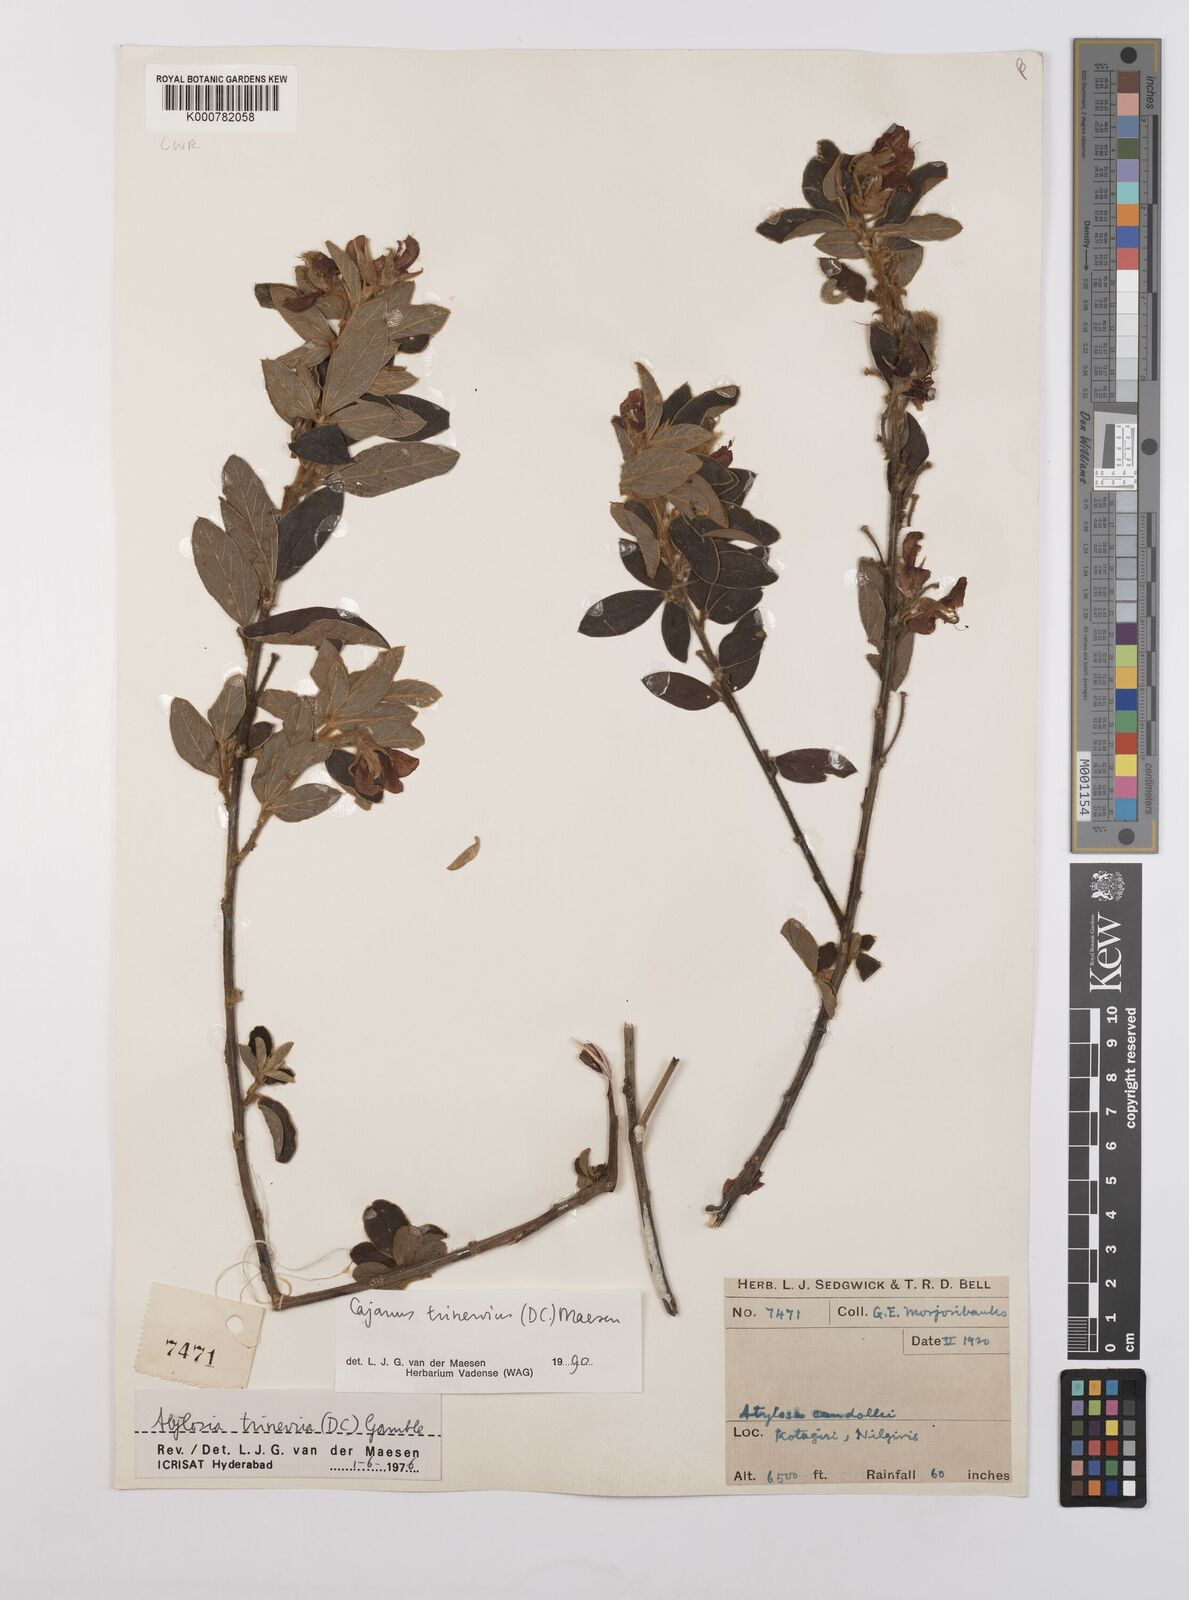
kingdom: Plantae
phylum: Tracheophyta
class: Magnoliopsida
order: Fabales
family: Fabaceae
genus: Cajanus
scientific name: Cajanus trinervius
